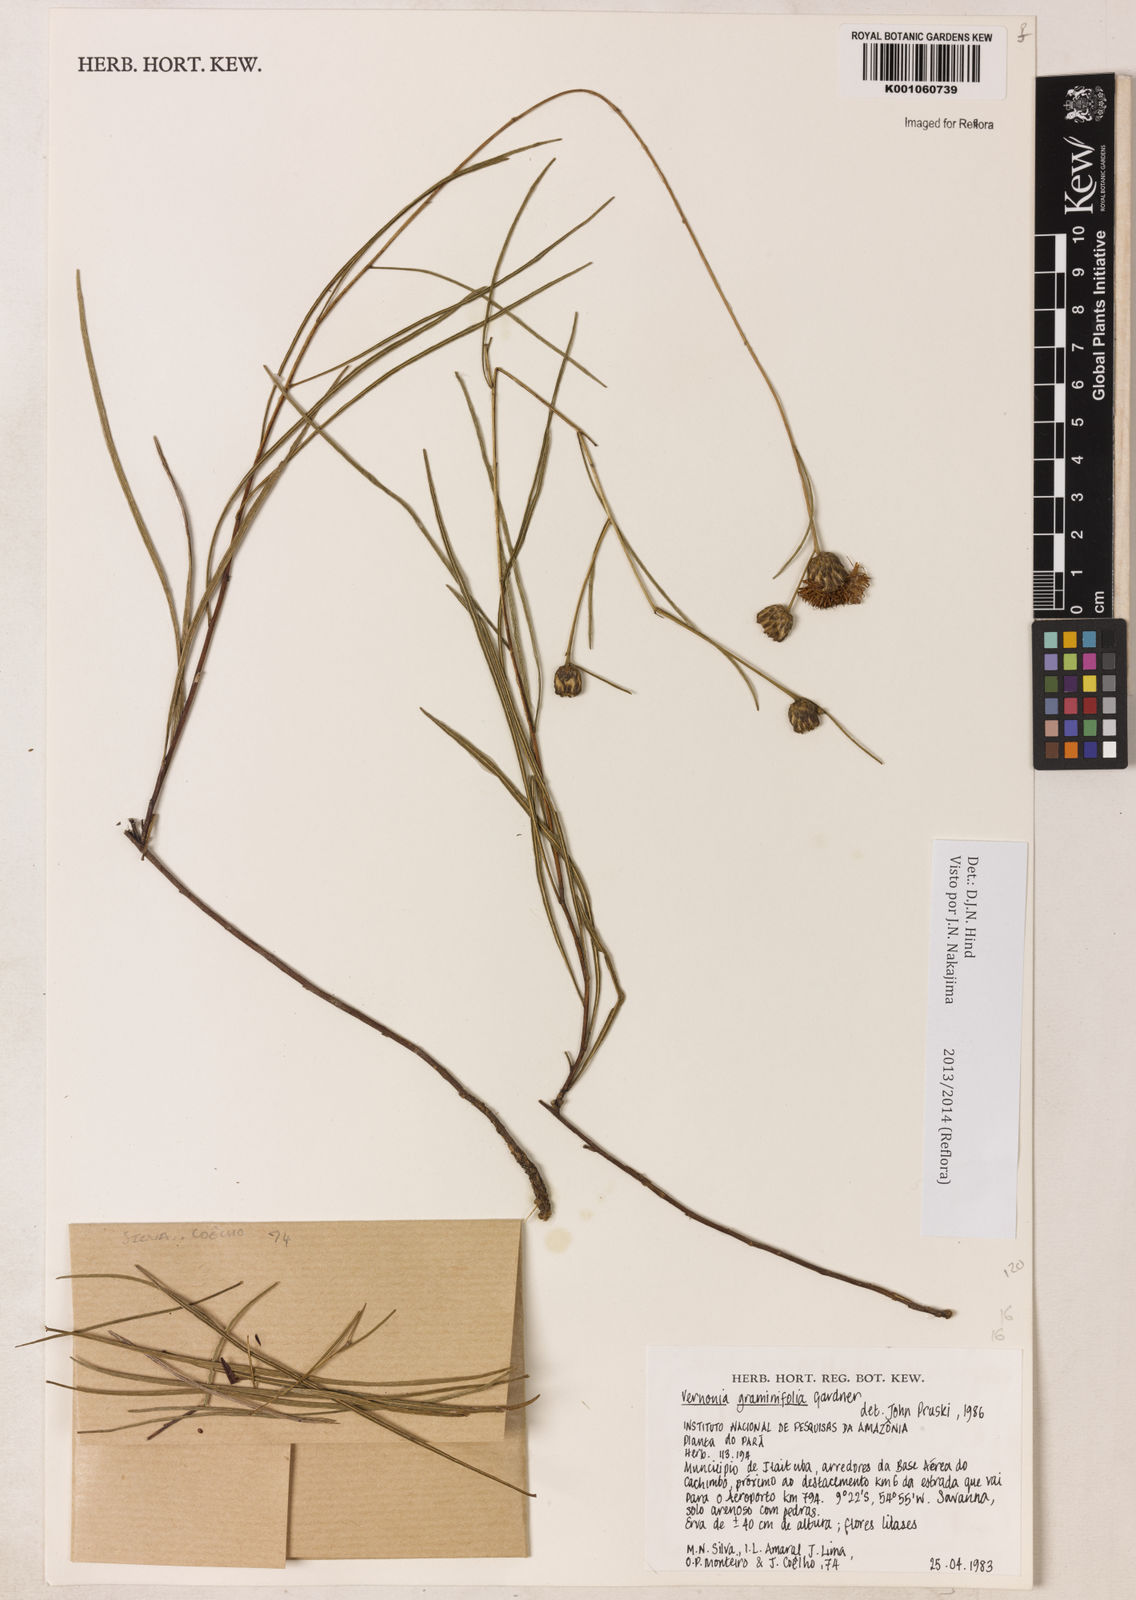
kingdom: Plantae
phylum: Tracheophyta
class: Magnoliopsida
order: Asterales
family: Asteraceae
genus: Lessingianthus
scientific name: Lessingianthus graminifolius
